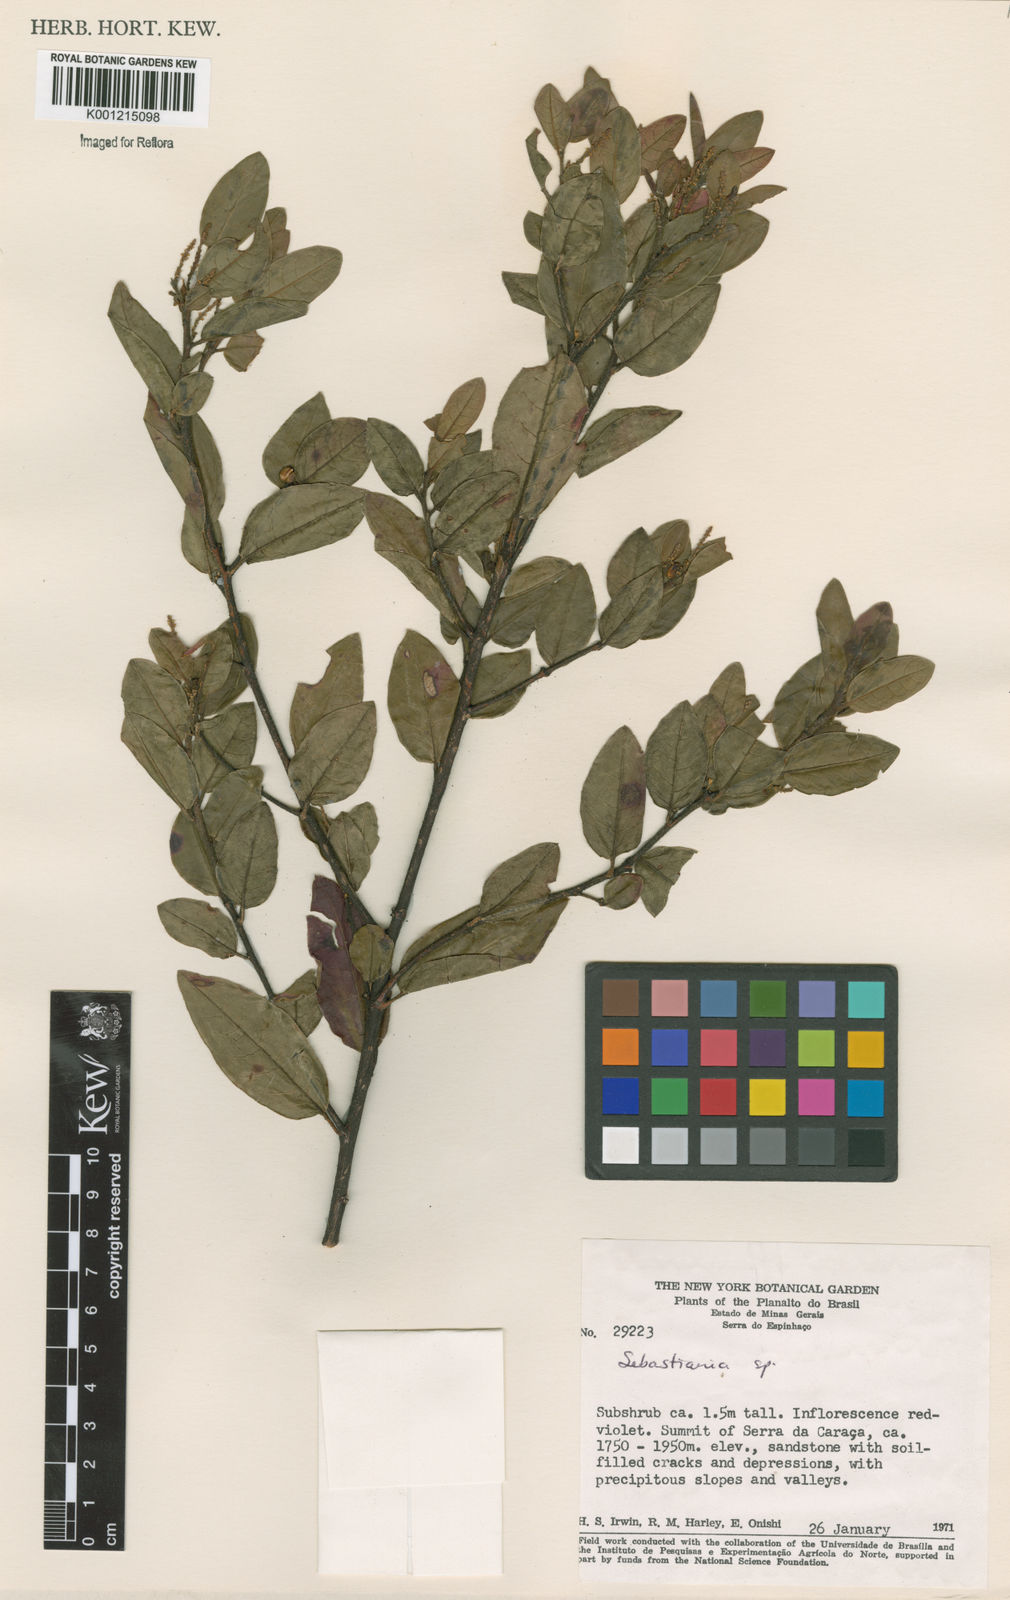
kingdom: Plantae
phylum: Tracheophyta
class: Magnoliopsida
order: Malpighiales
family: Euphorbiaceae
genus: Sebastiania
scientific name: Sebastiania
